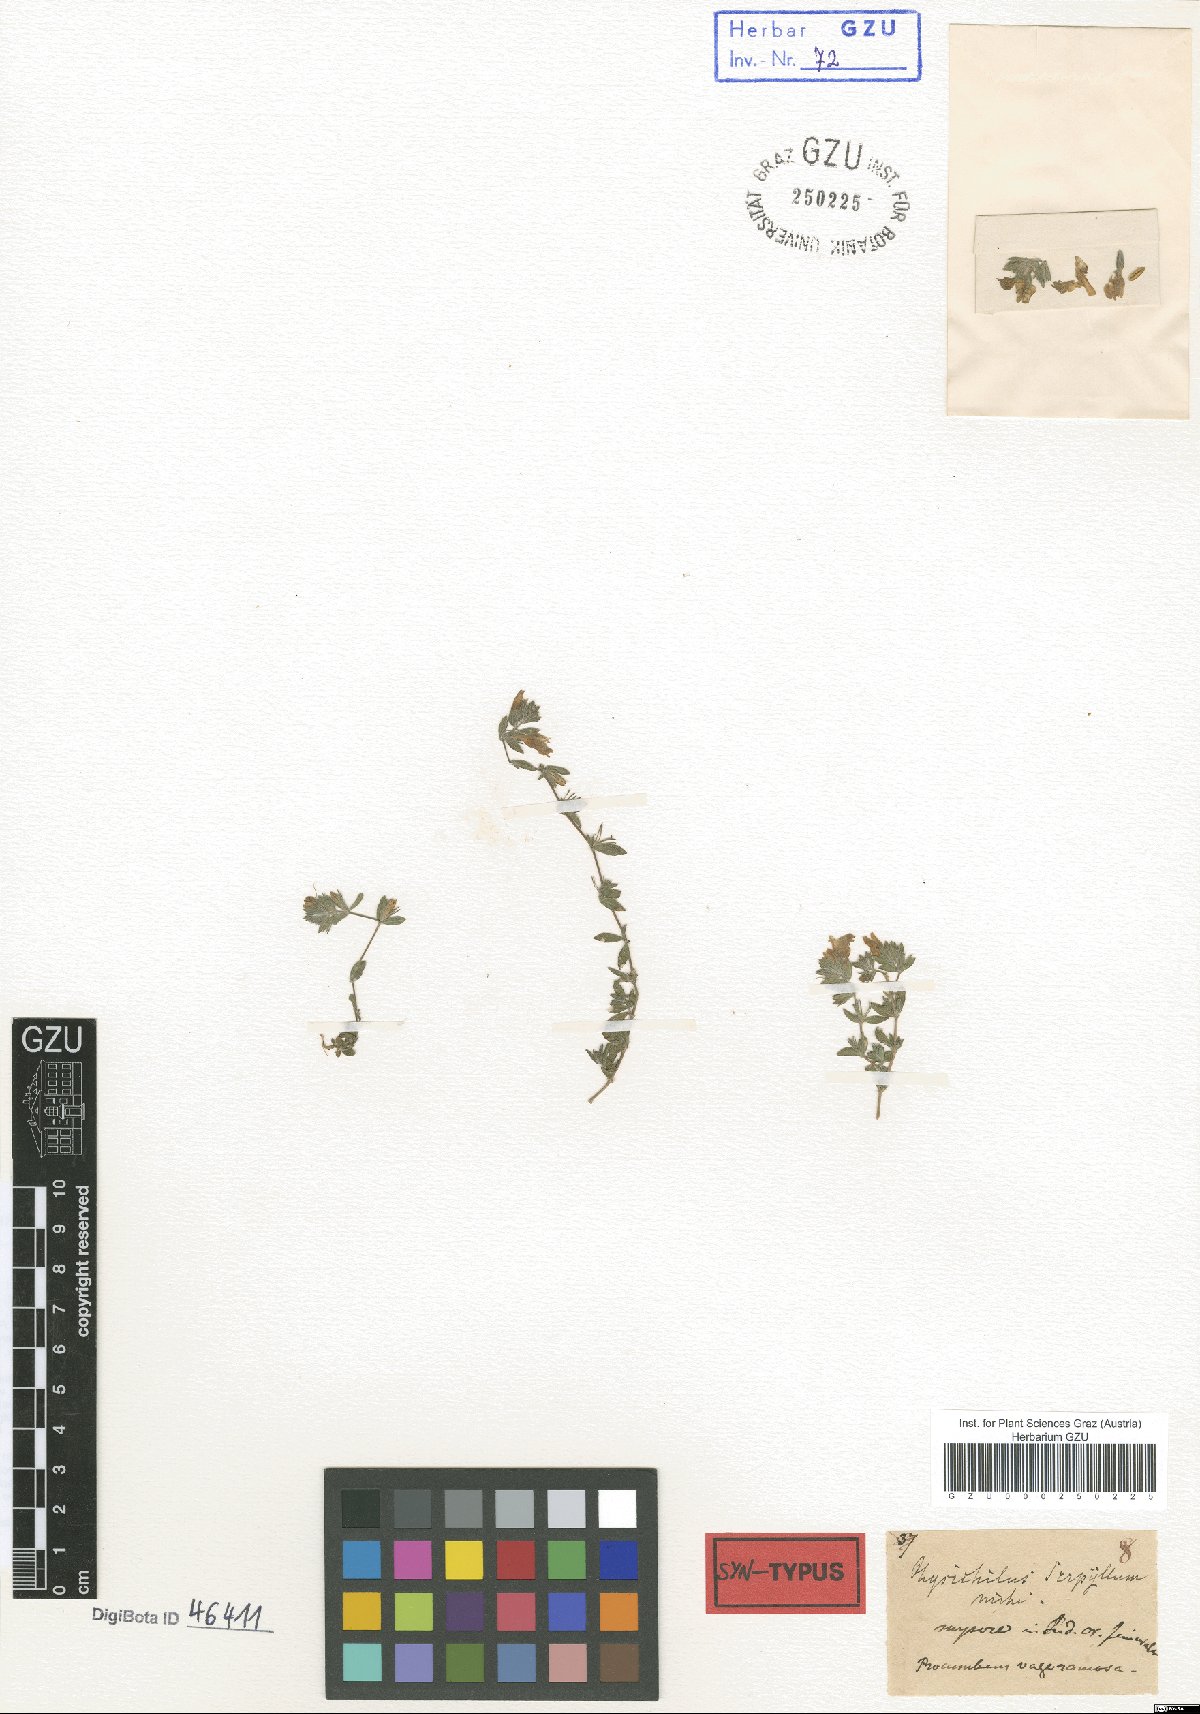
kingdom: Plantae
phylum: Tracheophyta
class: Magnoliopsida
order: Lamiales
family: Acanthaceae
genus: Hygrophila
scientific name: Hygrophila serpyllum
